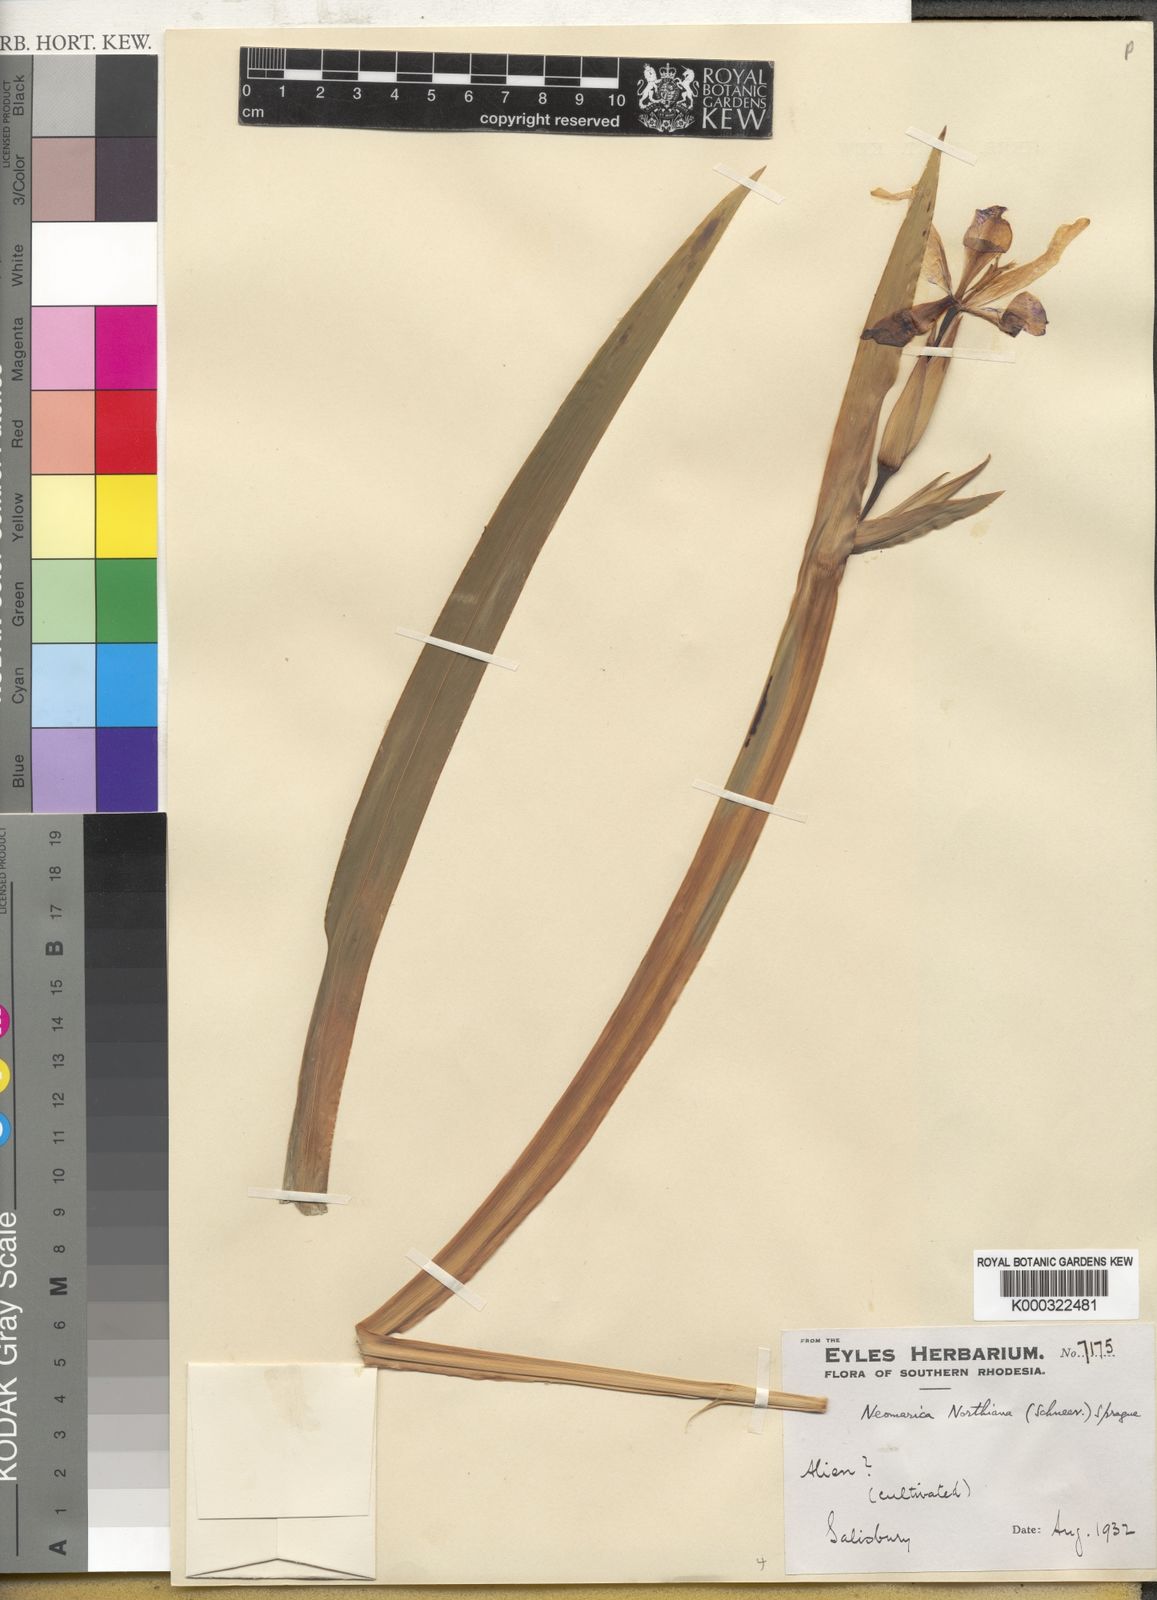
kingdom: Plantae
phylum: Tracheophyta
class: Liliopsida
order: Asparagales
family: Iridaceae
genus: Trimezia
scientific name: Trimezia northiana
